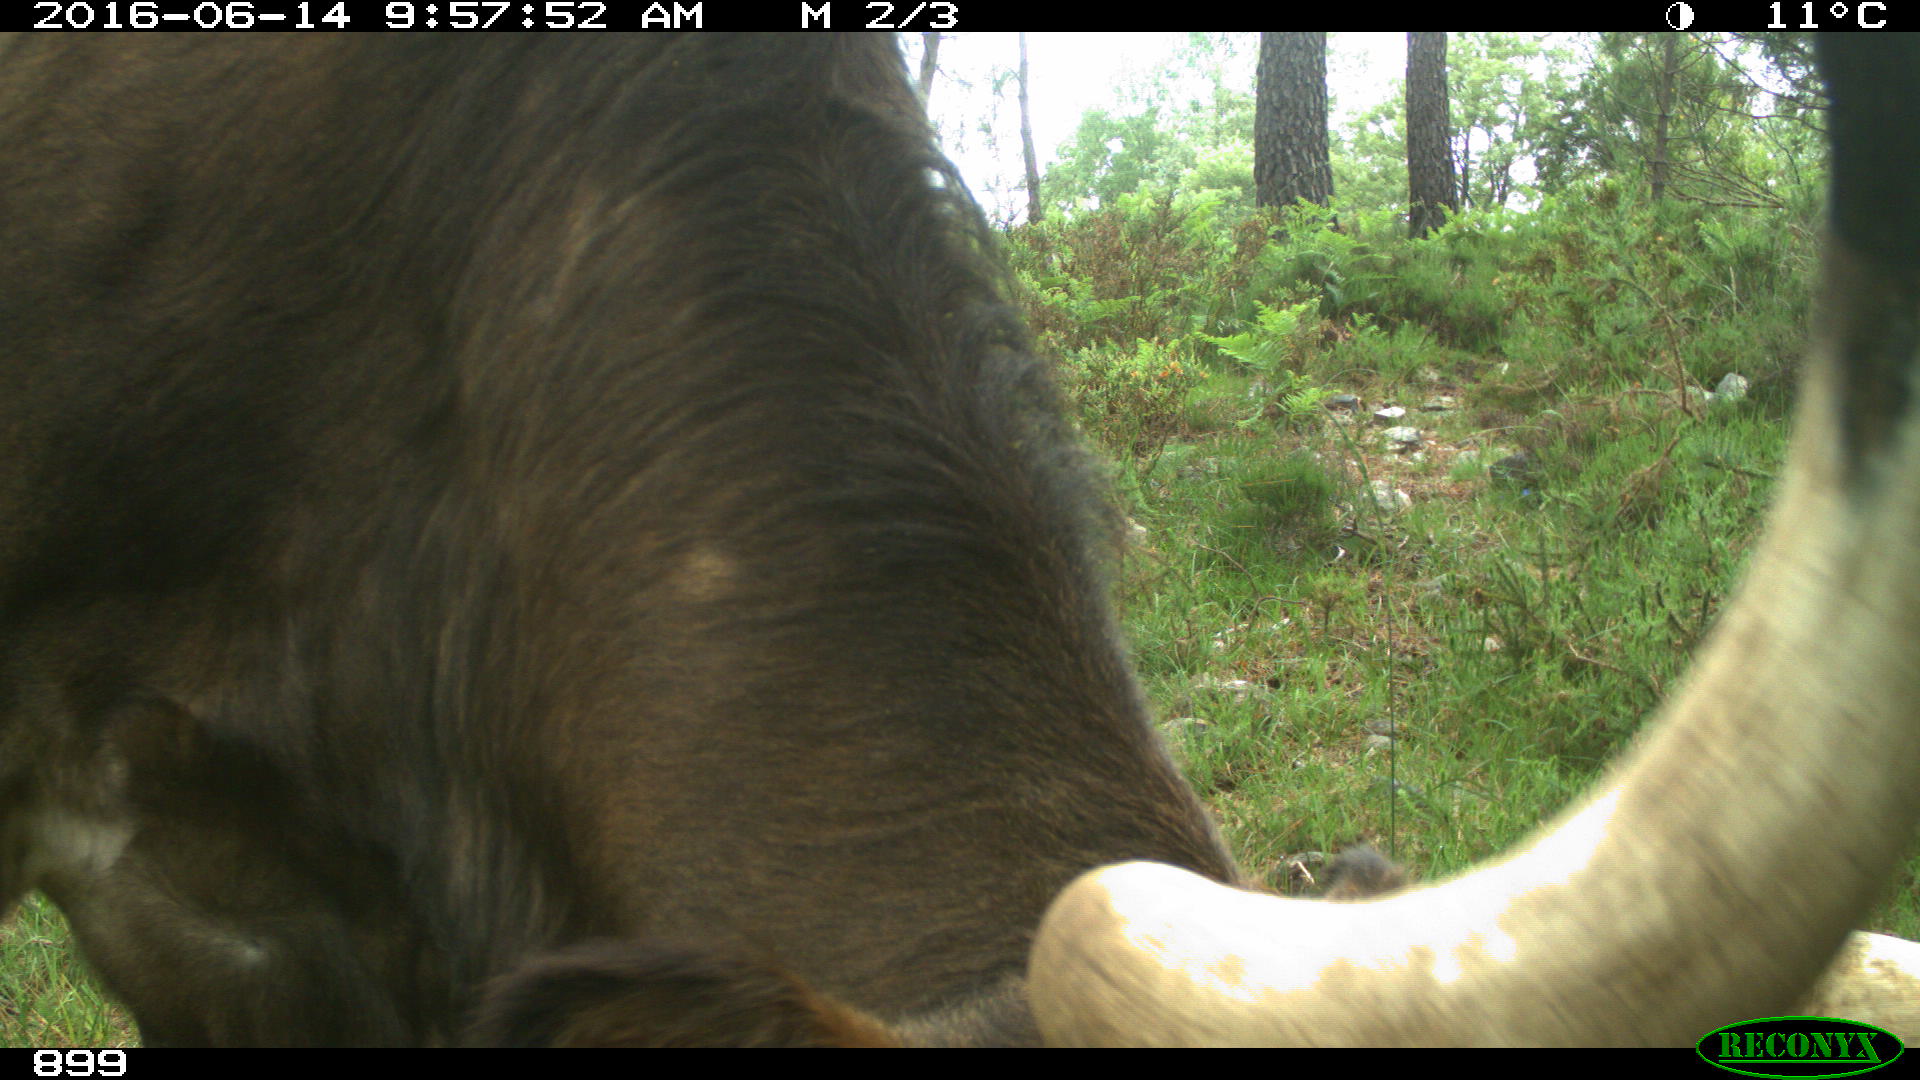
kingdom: Animalia
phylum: Chordata
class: Mammalia
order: Artiodactyla
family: Bovidae
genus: Bos
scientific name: Bos taurus
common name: Domesticated cattle
